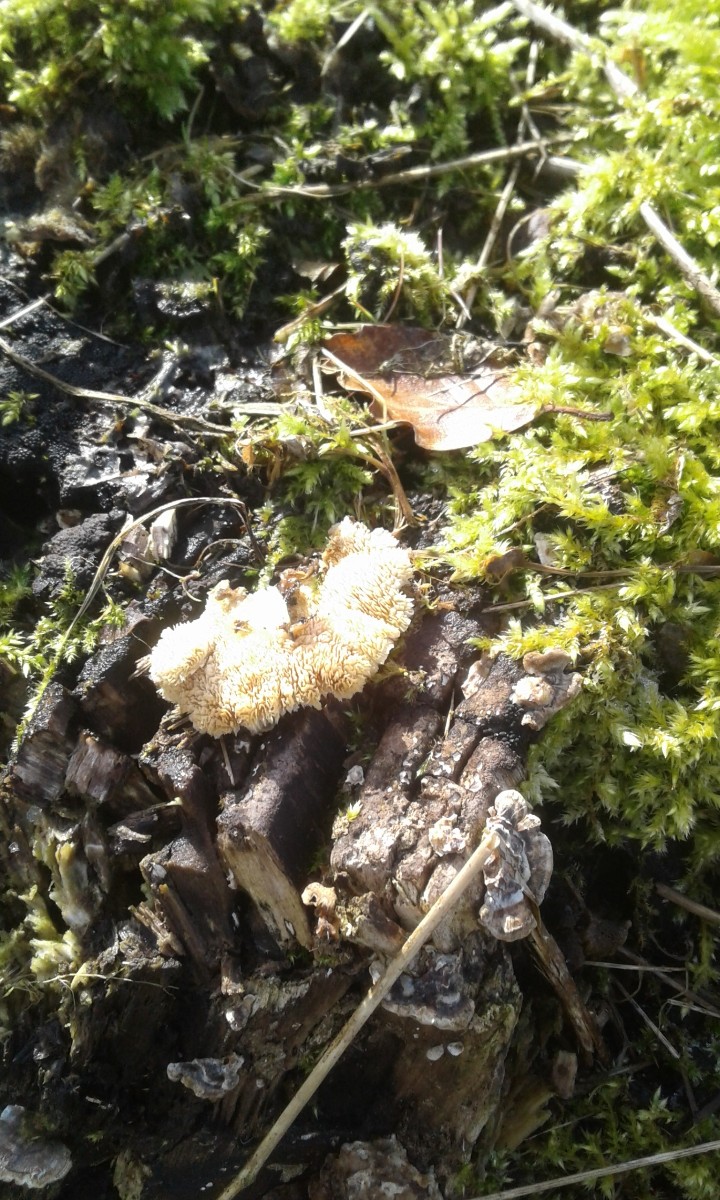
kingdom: Fungi
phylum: Basidiomycota
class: Agaricomycetes
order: Polyporales
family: Polyporaceae
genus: Trametes
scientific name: Trametes versicolor
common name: broget læderporesvamp
